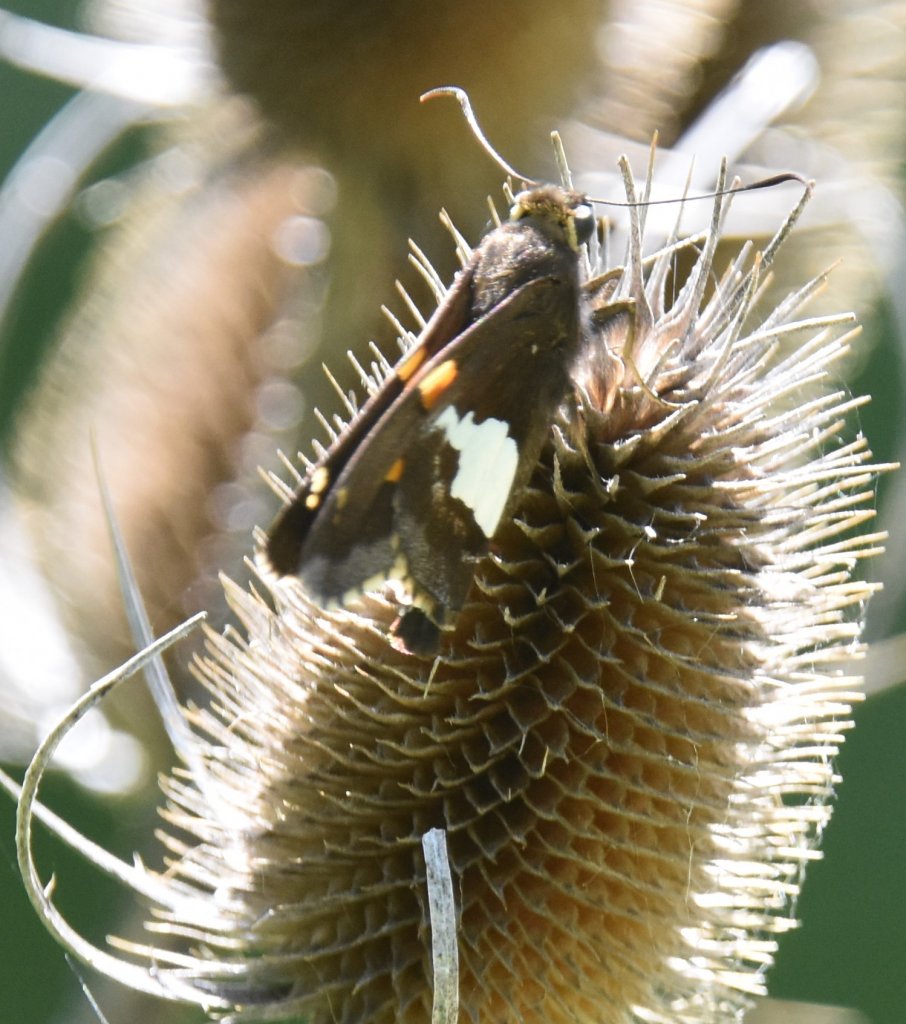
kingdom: Animalia
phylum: Arthropoda
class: Insecta
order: Lepidoptera
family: Hesperiidae
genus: Epargyreus
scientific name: Epargyreus clarus
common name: Silver-spotted Skipper
